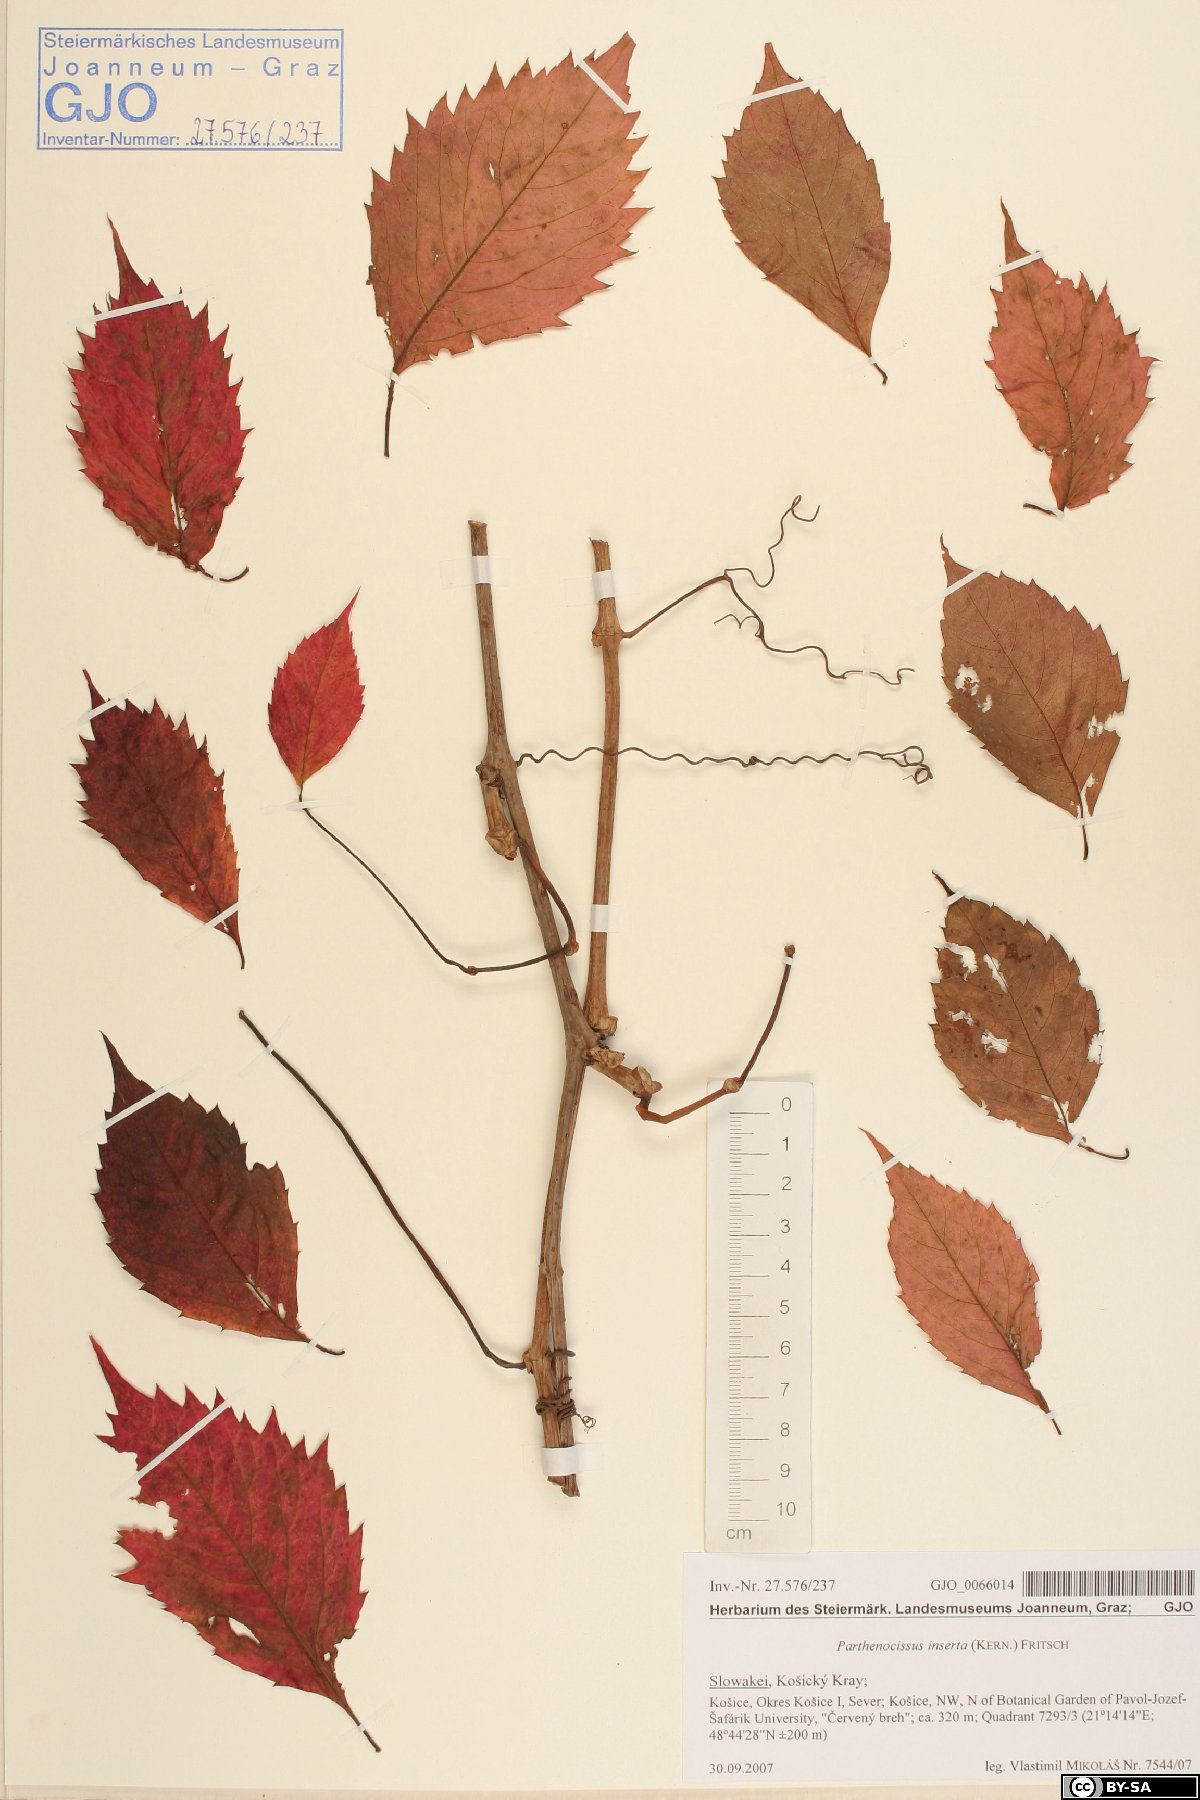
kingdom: Plantae
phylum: Tracheophyta
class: Magnoliopsida
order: Vitales
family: Vitaceae
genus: Parthenocissus
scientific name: Parthenocissus inserta
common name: False virginia-creeper
